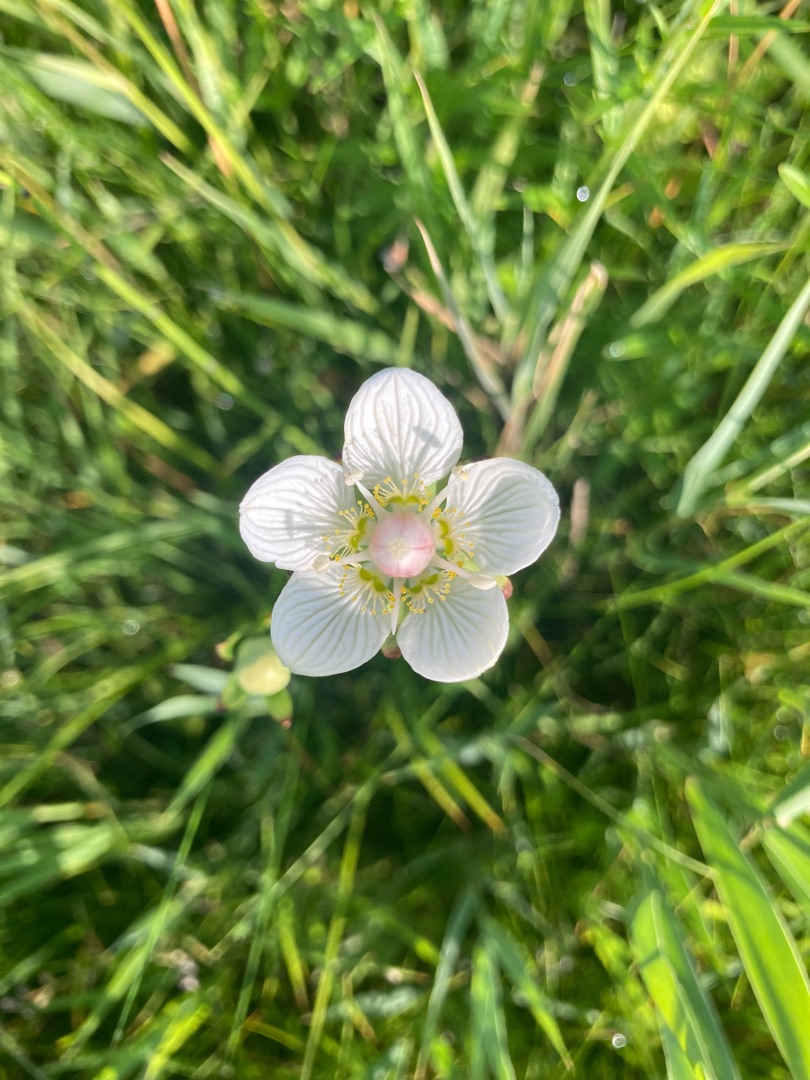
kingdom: Plantae
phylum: Tracheophyta
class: Magnoliopsida
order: Celastrales
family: Parnassiaceae
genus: Parnassia
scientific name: Parnassia palustris
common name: Leverurt
